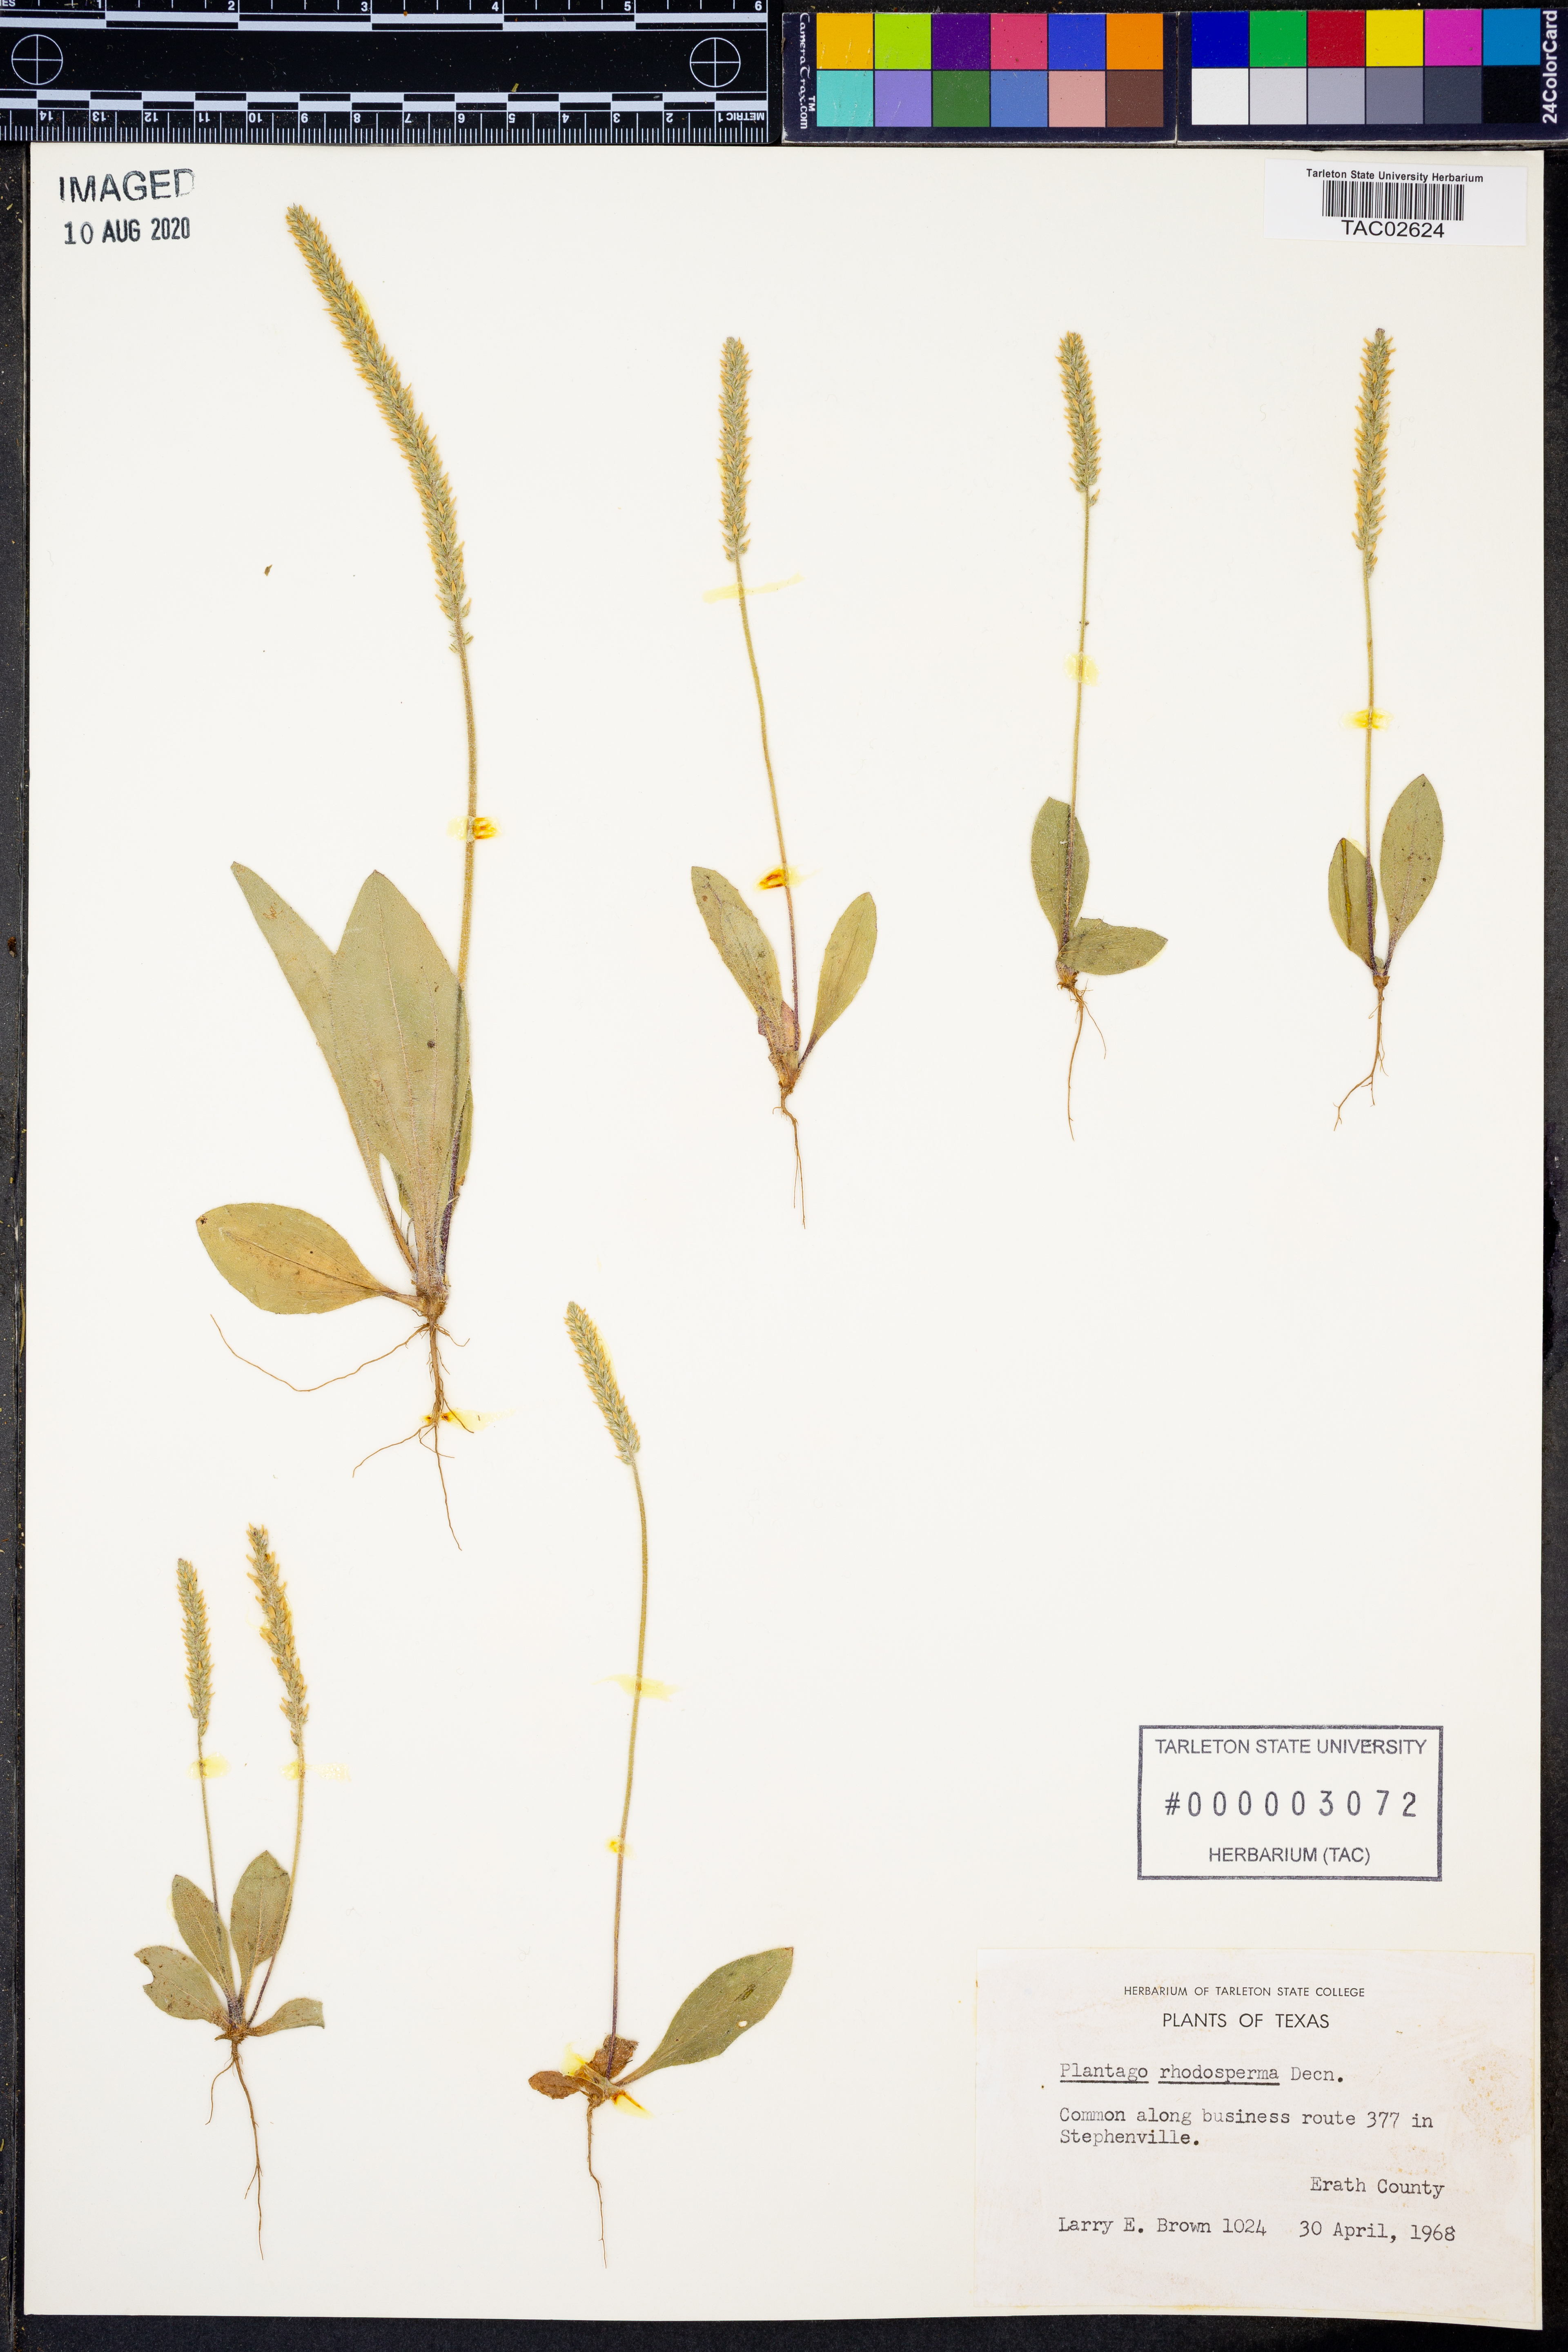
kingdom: Plantae
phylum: Tracheophyta
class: Magnoliopsida
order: Lamiales
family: Plantaginaceae
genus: Plantago
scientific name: Plantago rhodosperma
